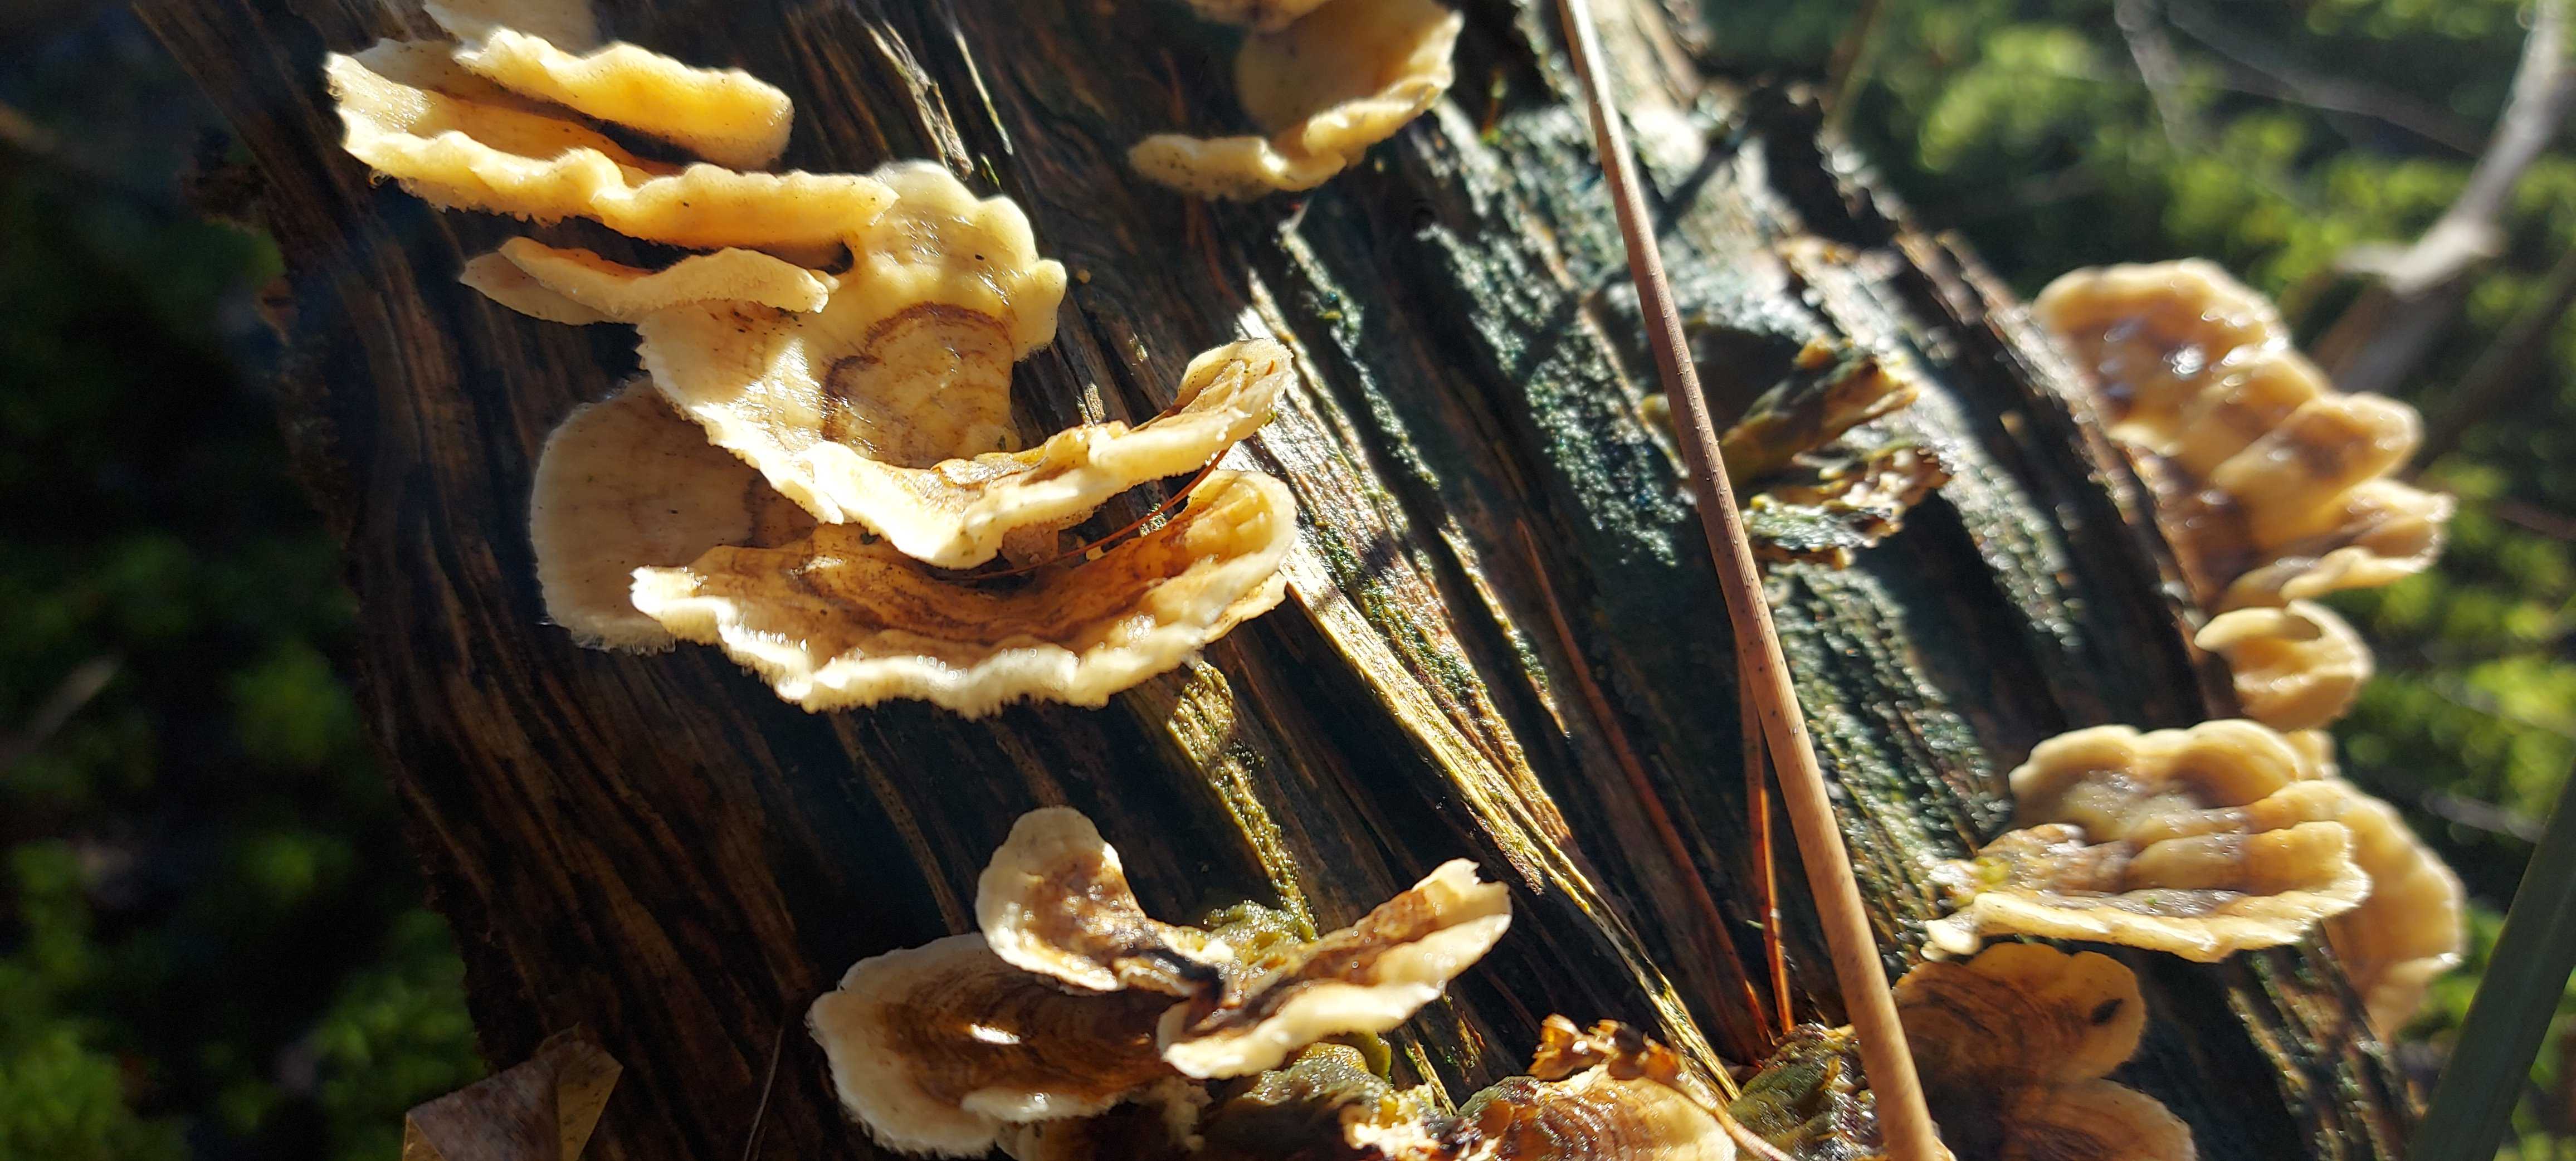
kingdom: Fungi
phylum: Basidiomycota
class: Agaricomycetes
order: Russulales
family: Stereaceae
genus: Stereum
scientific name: Stereum hirsutum
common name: håret lædersvamp
